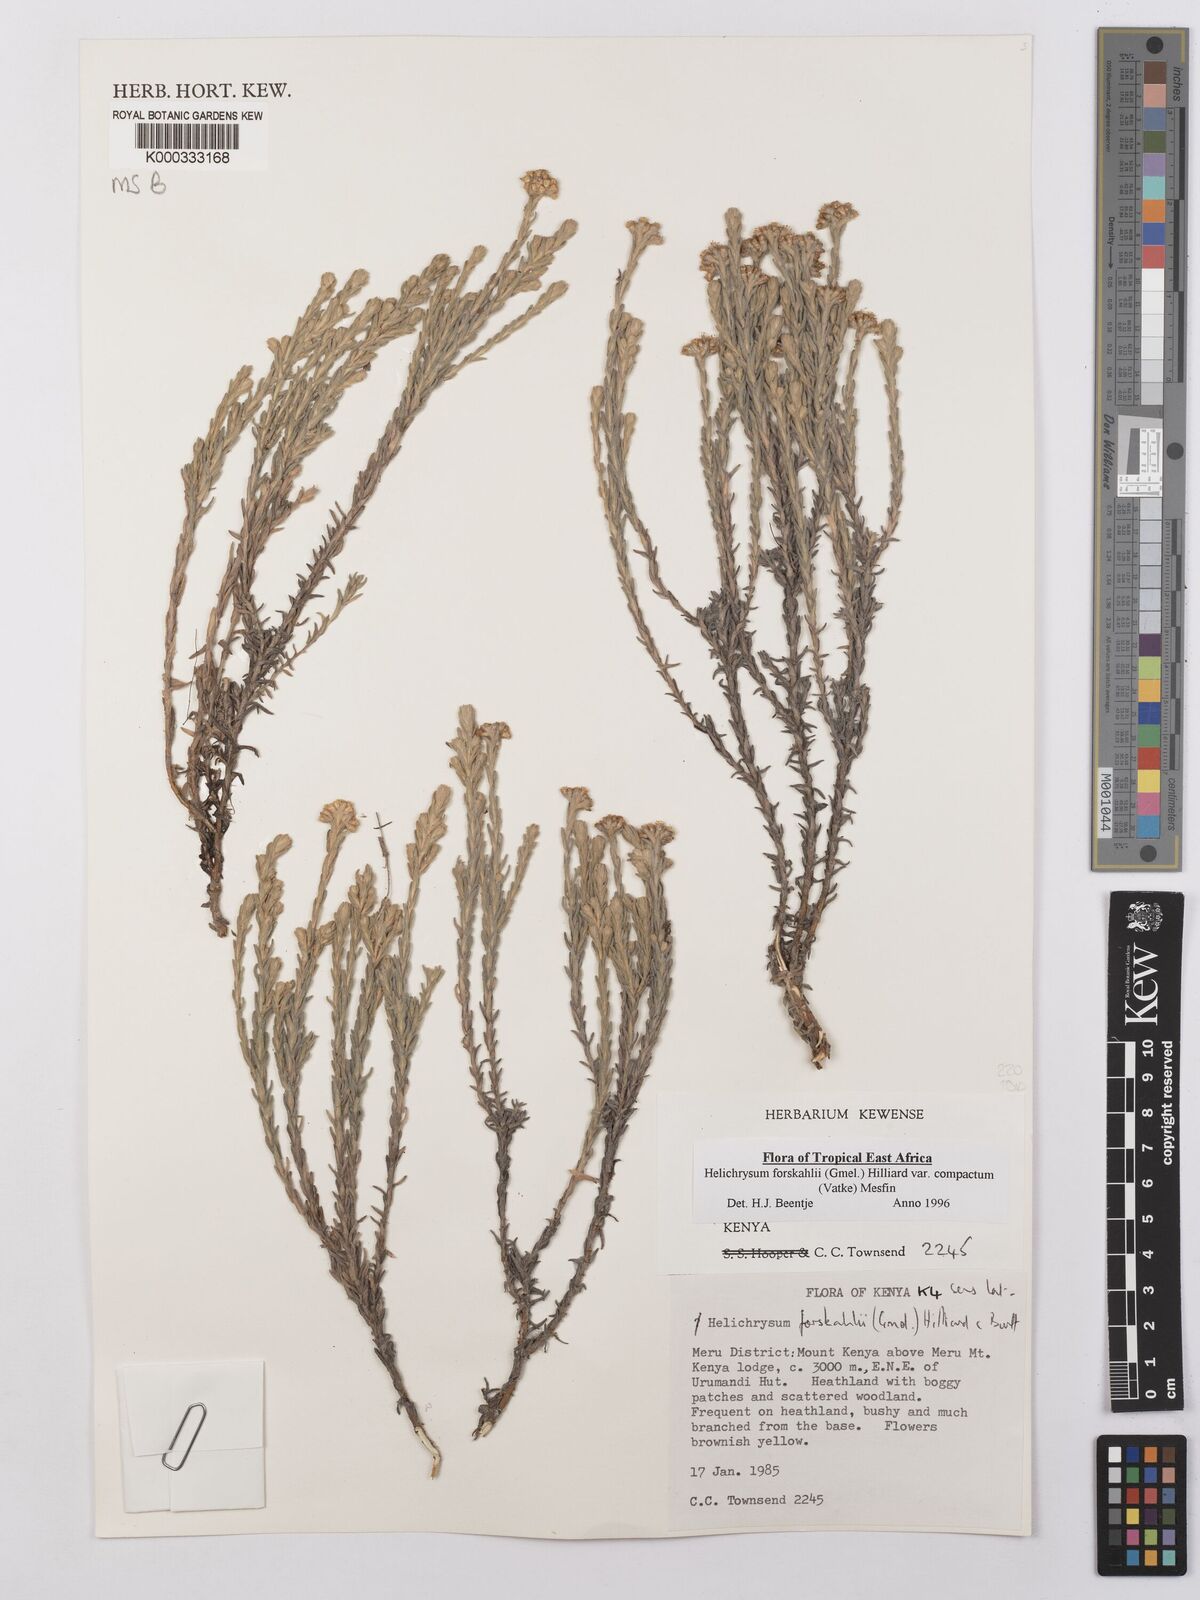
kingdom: Plantae
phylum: Tracheophyta
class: Magnoliopsida
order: Asterales
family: Asteraceae
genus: Helichrysum
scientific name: Helichrysum forskahlii
